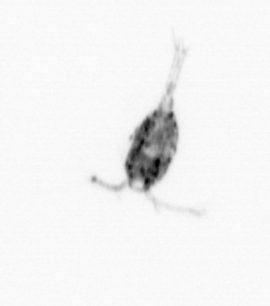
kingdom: Animalia
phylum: Arthropoda
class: Copepoda
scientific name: Copepoda
